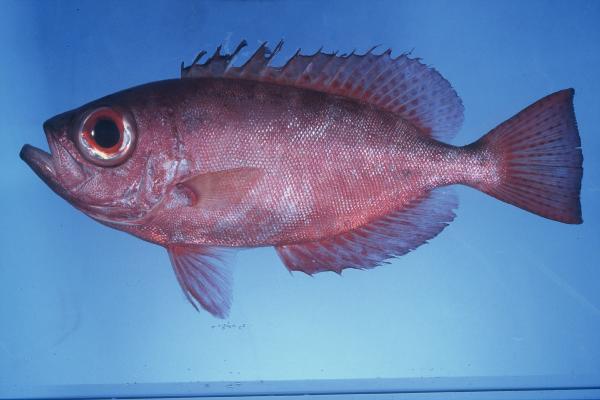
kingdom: Animalia
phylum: Chordata
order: Perciformes
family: Priacanthidae
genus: Heteropriacanthus
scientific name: Heteropriacanthus cruentatus
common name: Glasseye
